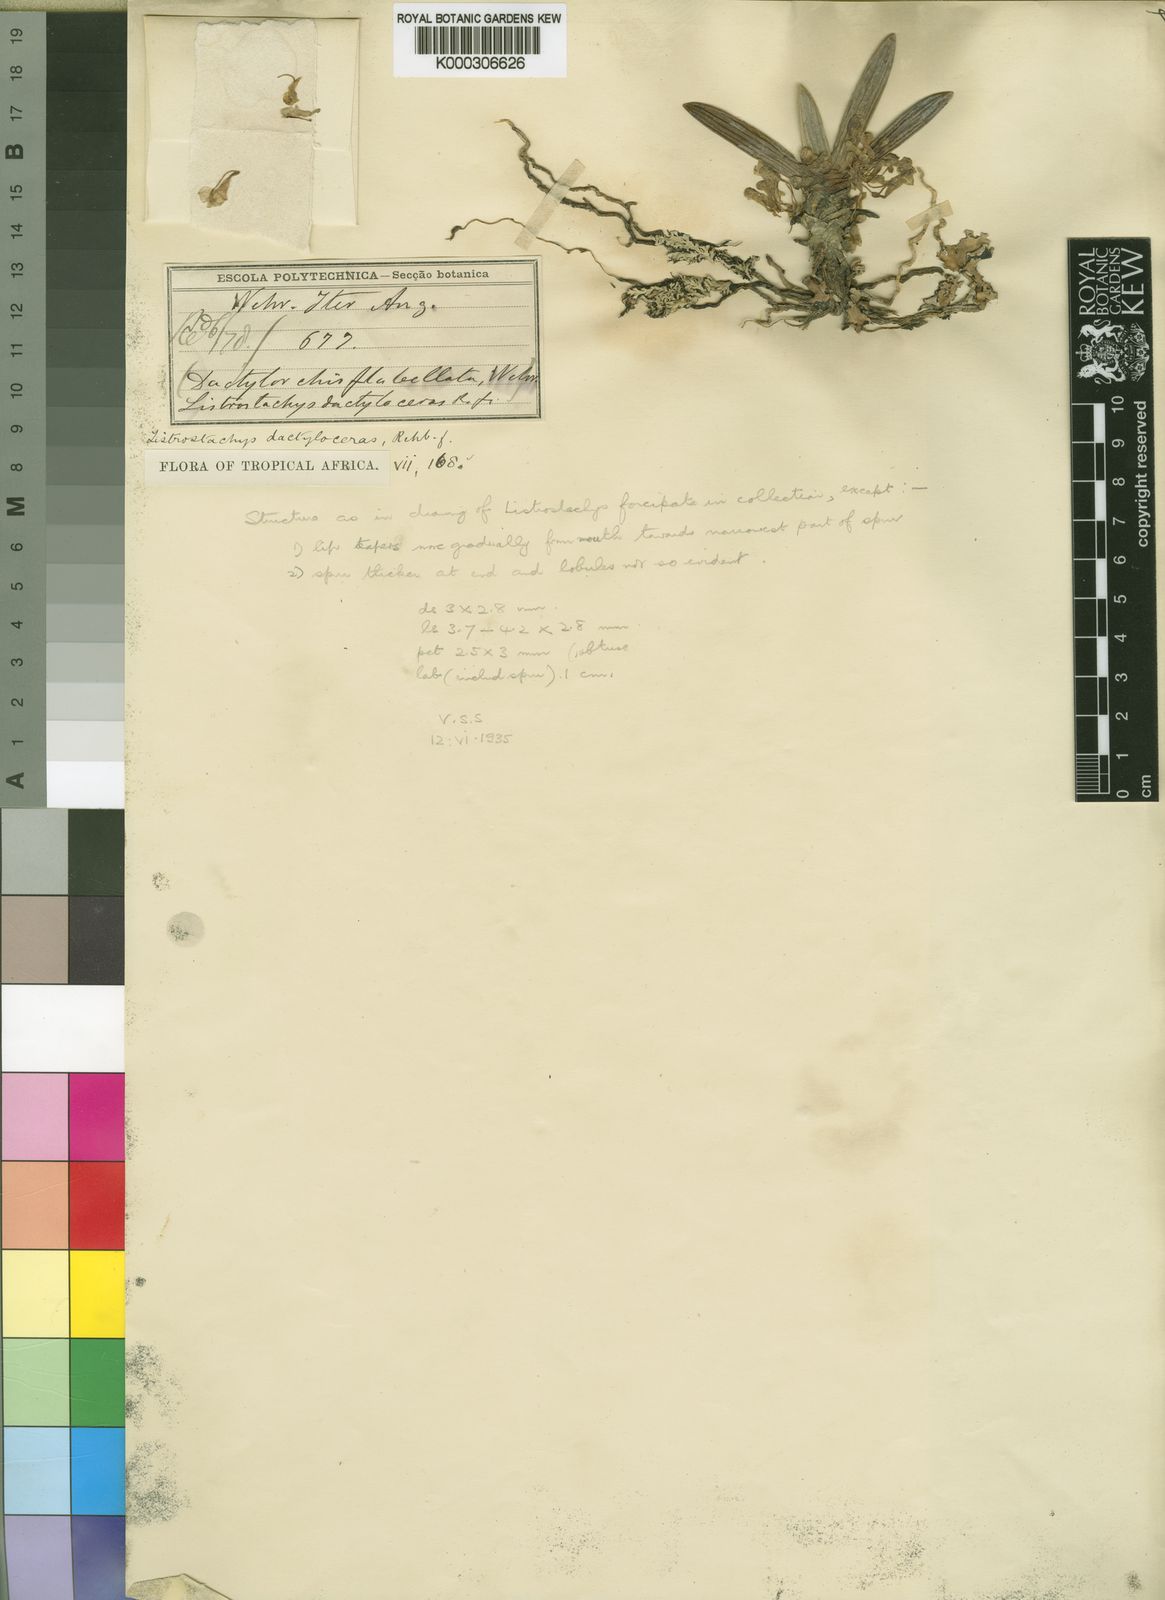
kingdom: Plantae
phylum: Tracheophyta
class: Liliopsida
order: Asparagales
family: Orchidaceae
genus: Podangis
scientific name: Podangis dactyloceras
